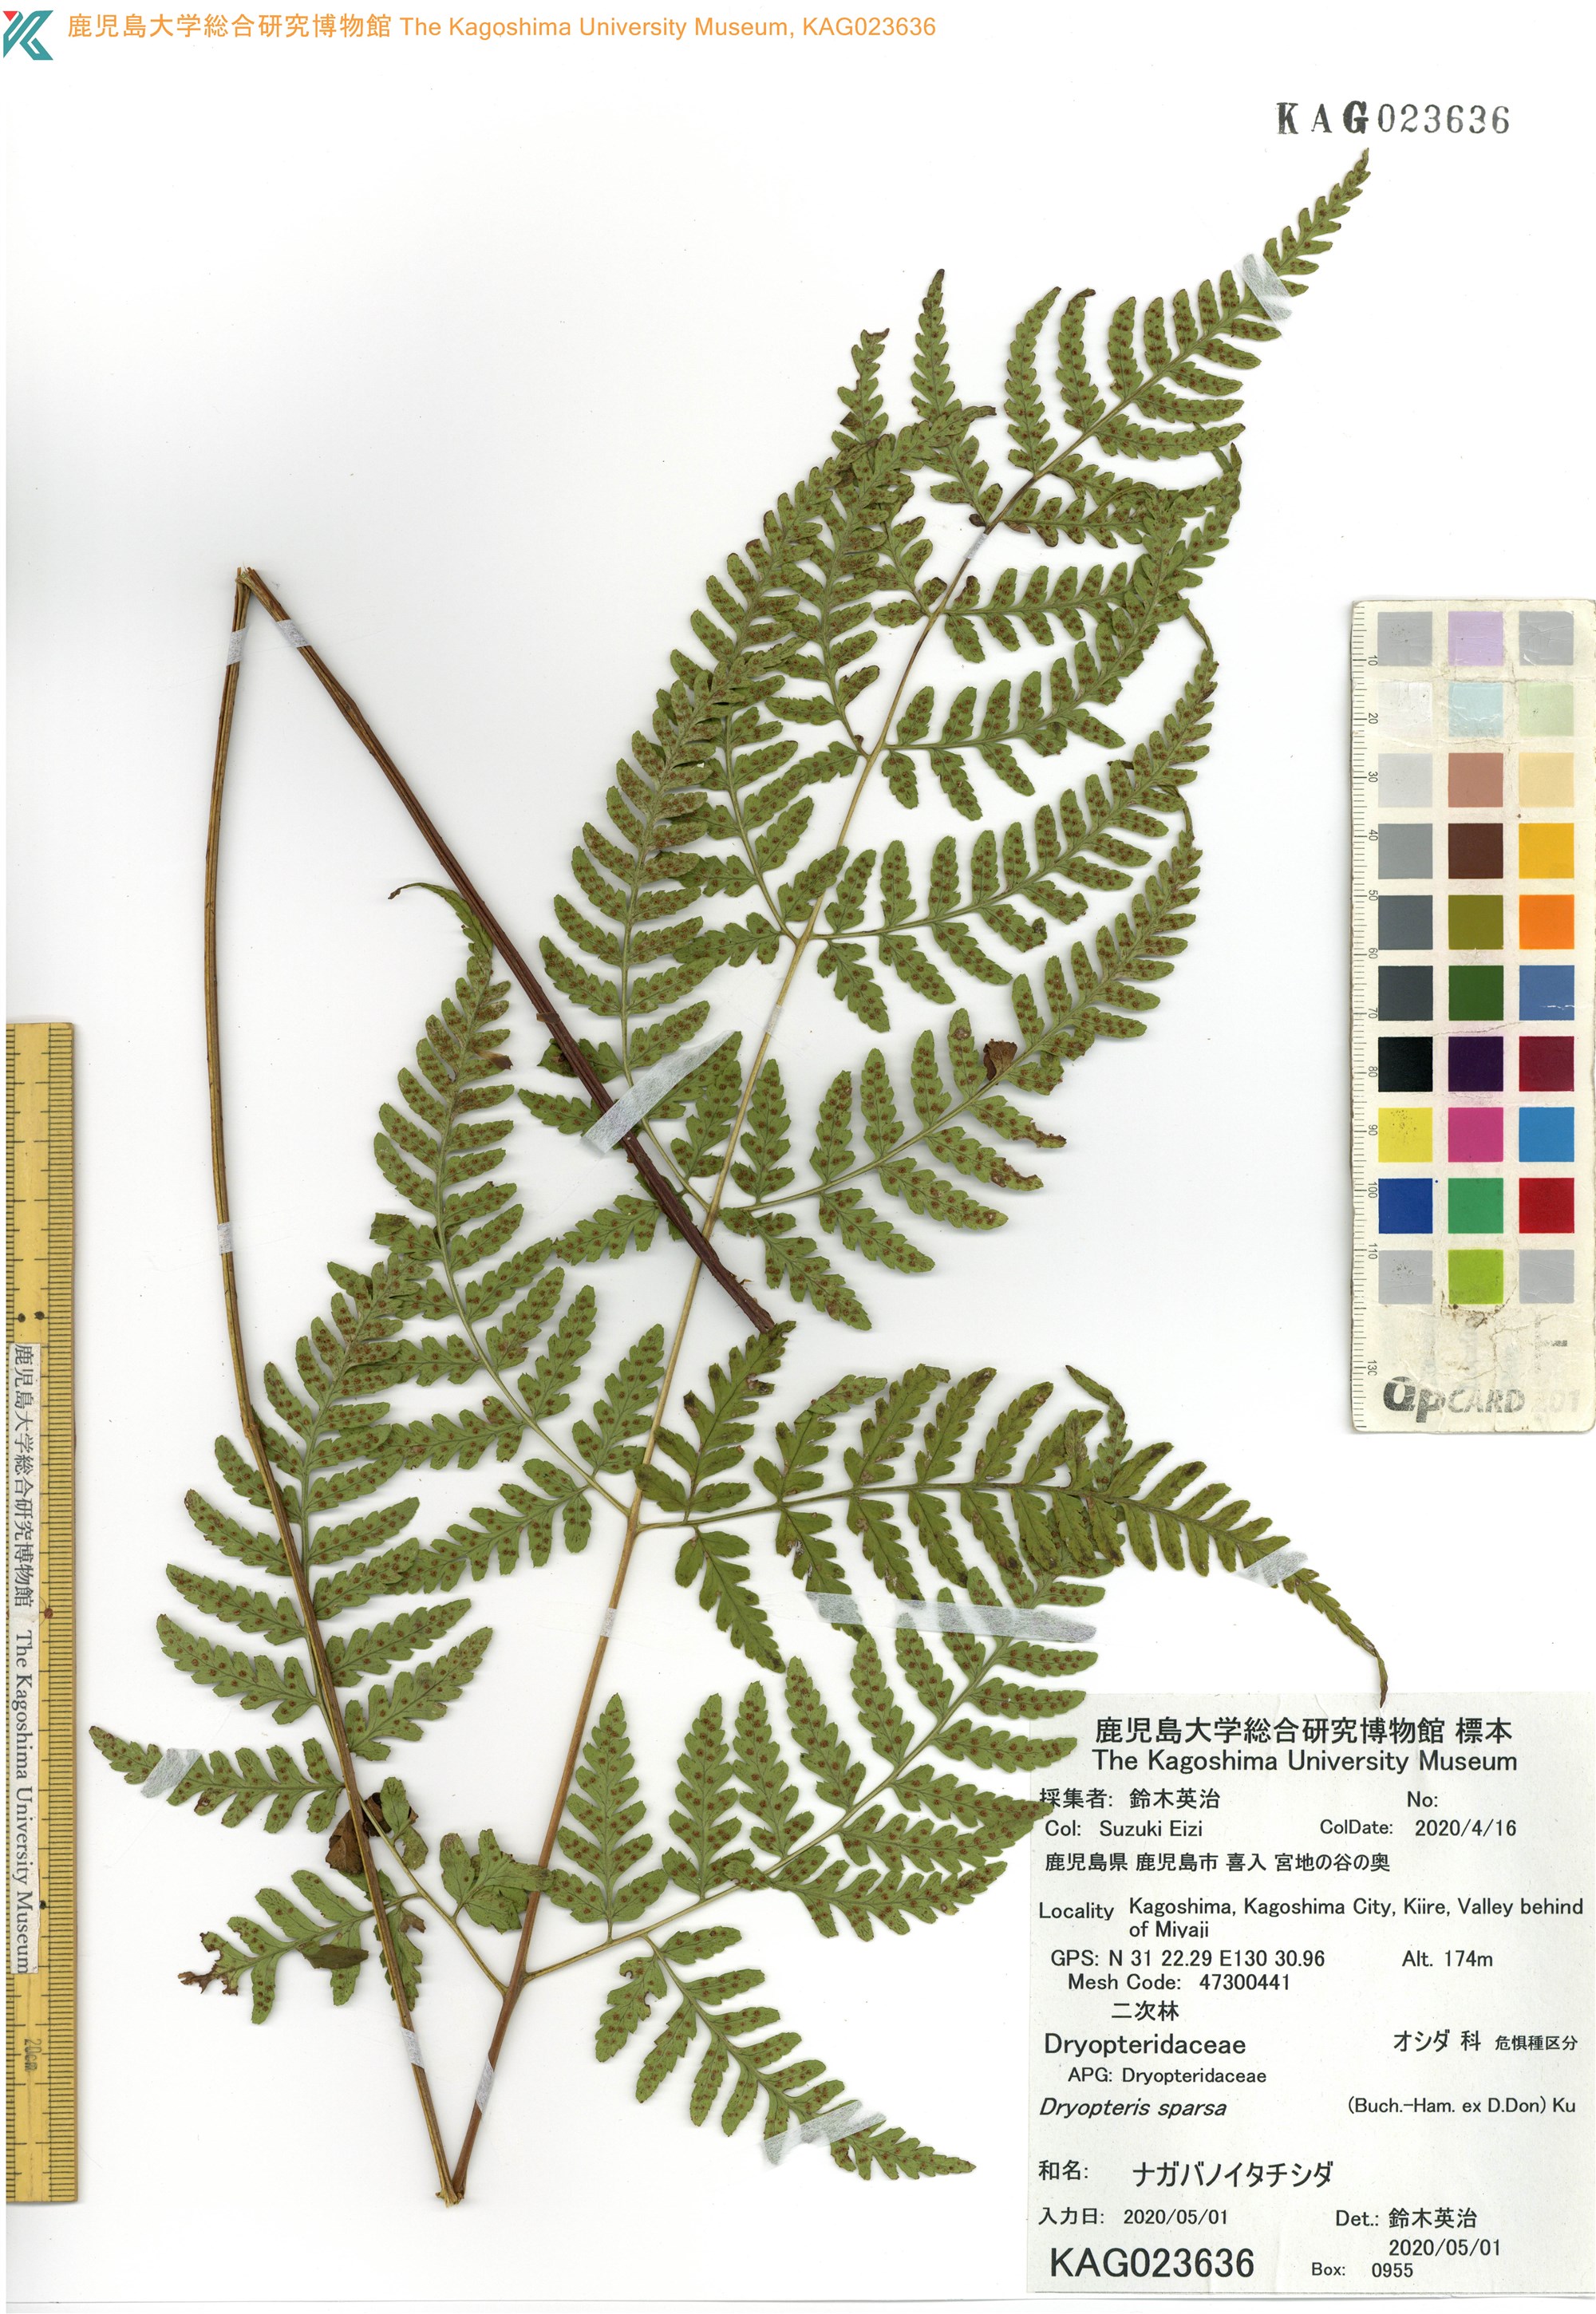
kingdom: Plantae
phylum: Tracheophyta
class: Polypodiopsida
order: Polypodiales
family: Dryopteridaceae
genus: Dryopteris
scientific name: Dryopteris sparsa
